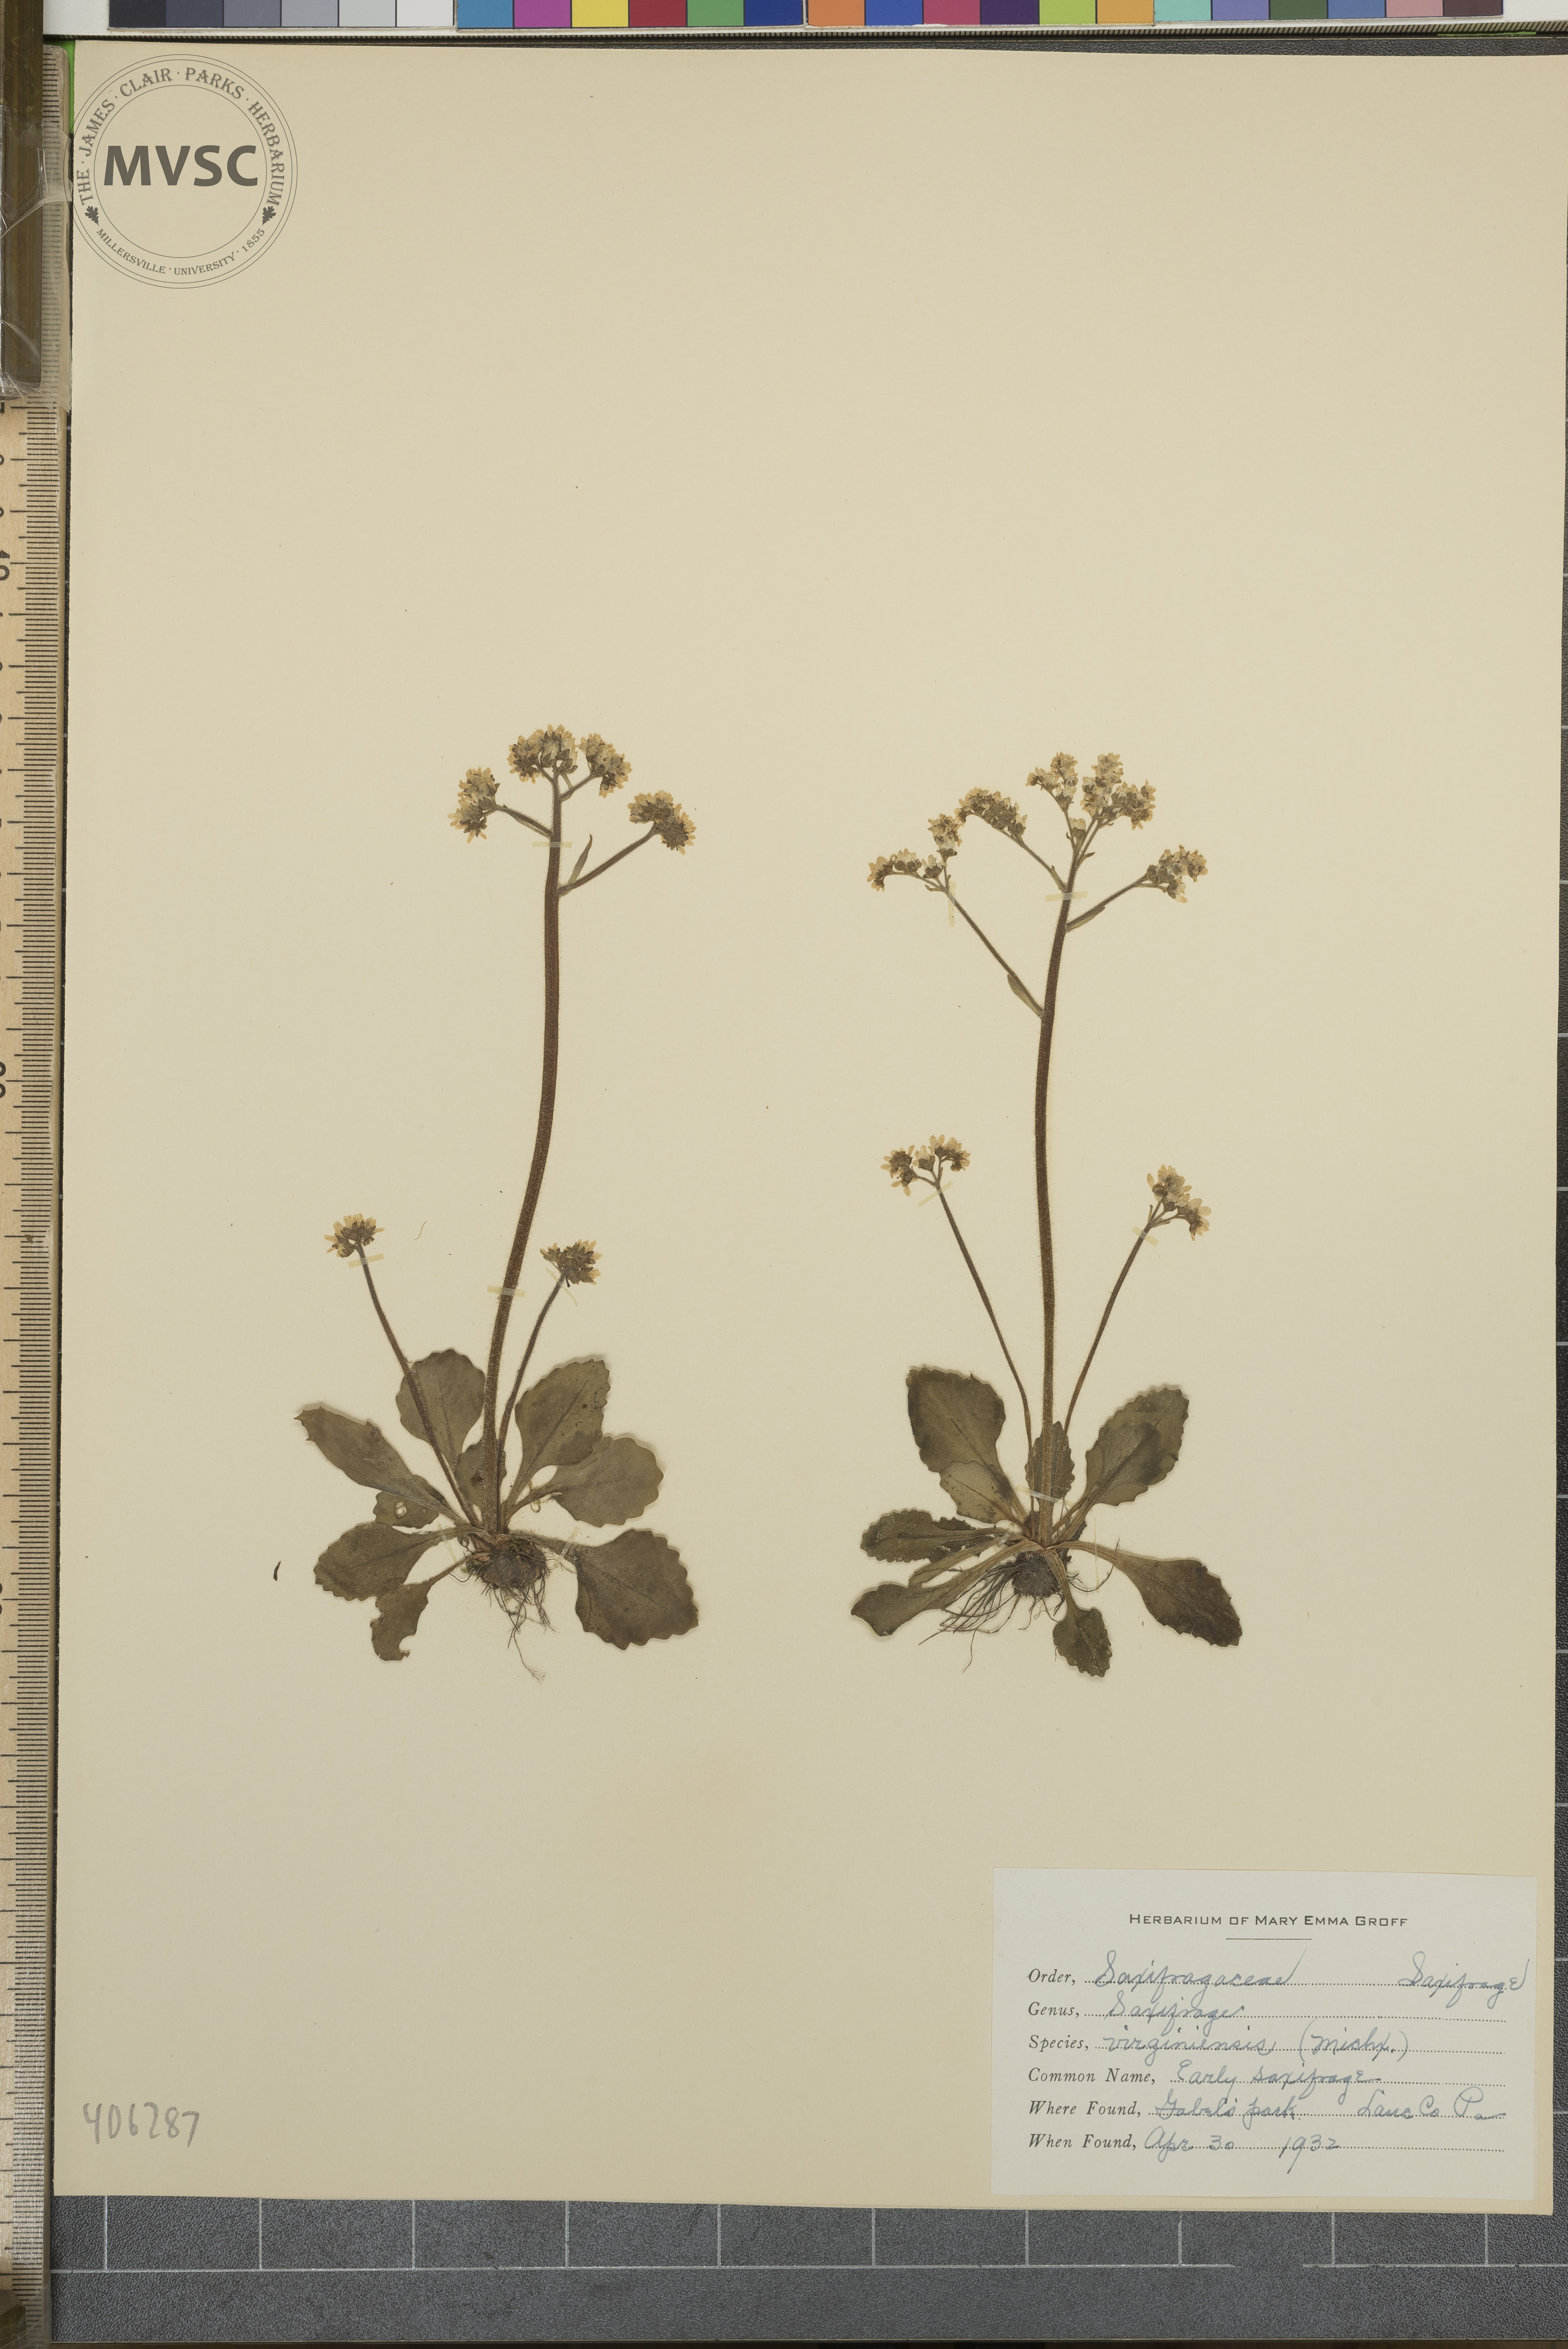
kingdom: Plantae
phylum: Tracheophyta
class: Magnoliopsida
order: Saxifragales
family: Saxifragaceae
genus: Micranthes
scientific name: Micranthes virginiensis
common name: early saxifrage
